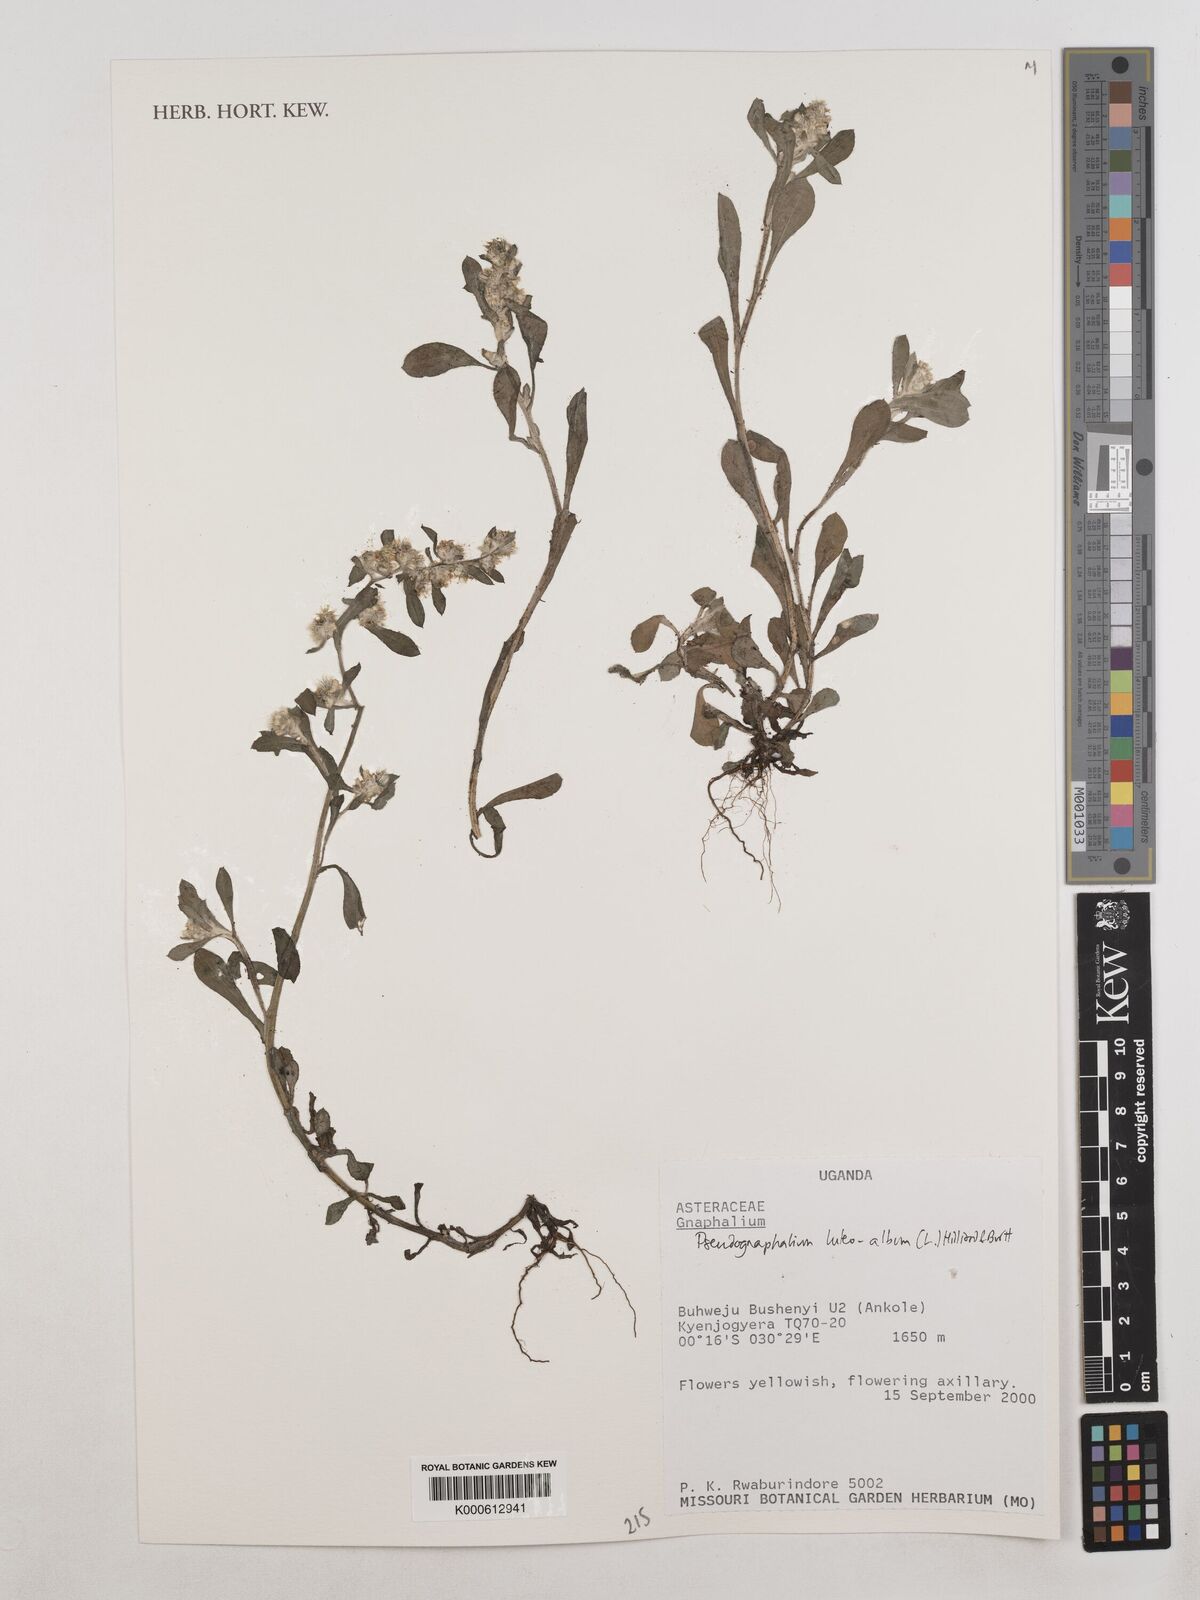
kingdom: Plantae
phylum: Tracheophyta
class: Magnoliopsida
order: Asterales
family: Asteraceae
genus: Helichrysum
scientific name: Helichrysum luteoalbum
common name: Daisy
